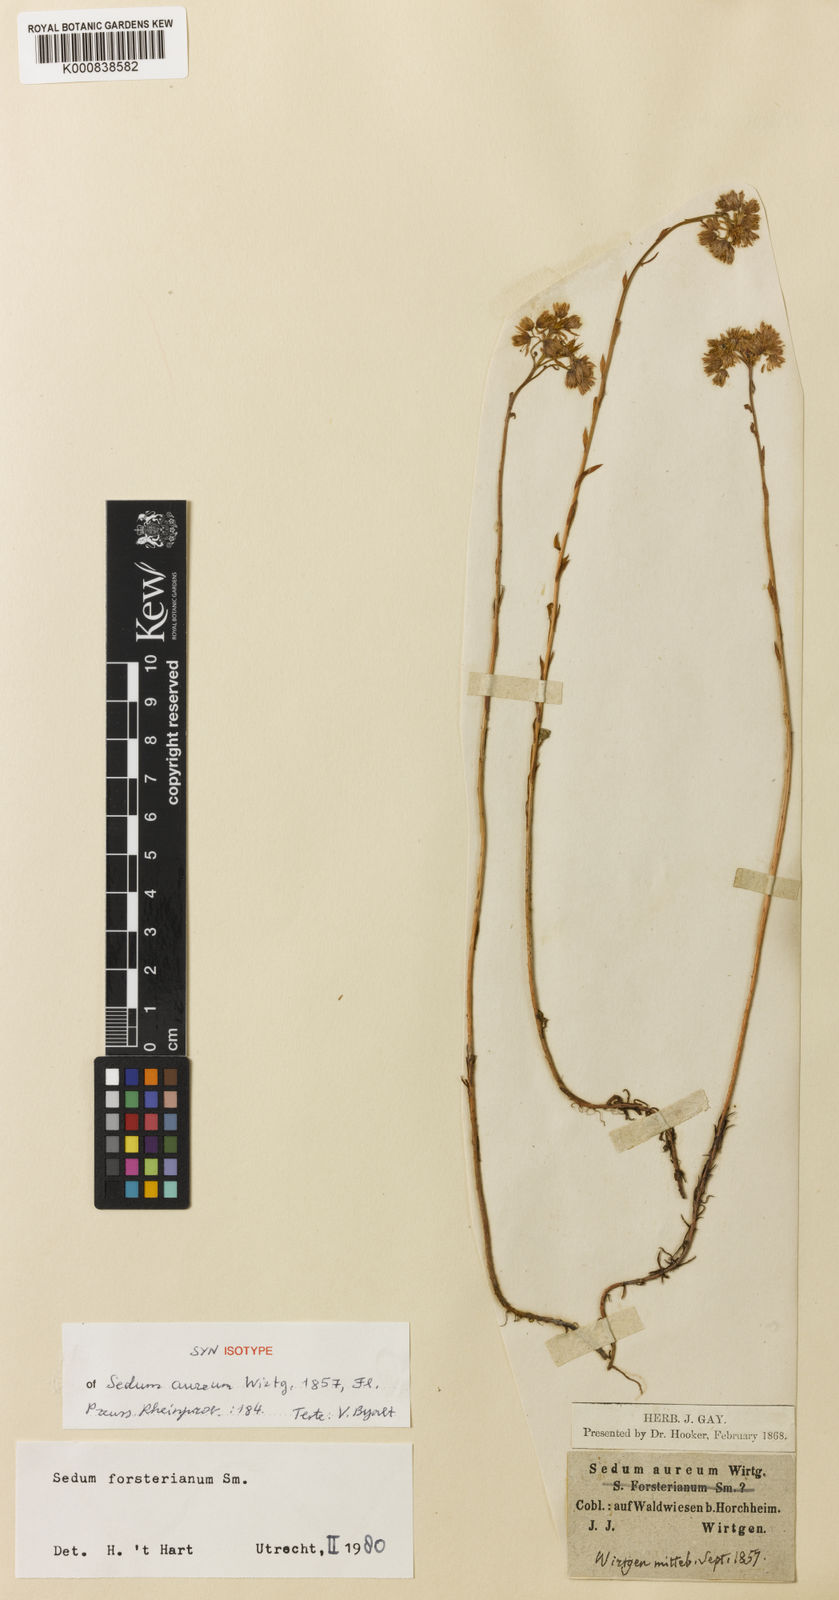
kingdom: Plantae
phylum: Tracheophyta
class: Magnoliopsida
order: Saxifragales
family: Crassulaceae
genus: Petrosedum
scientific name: Petrosedum forsterianum
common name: Forster's stonecrop
